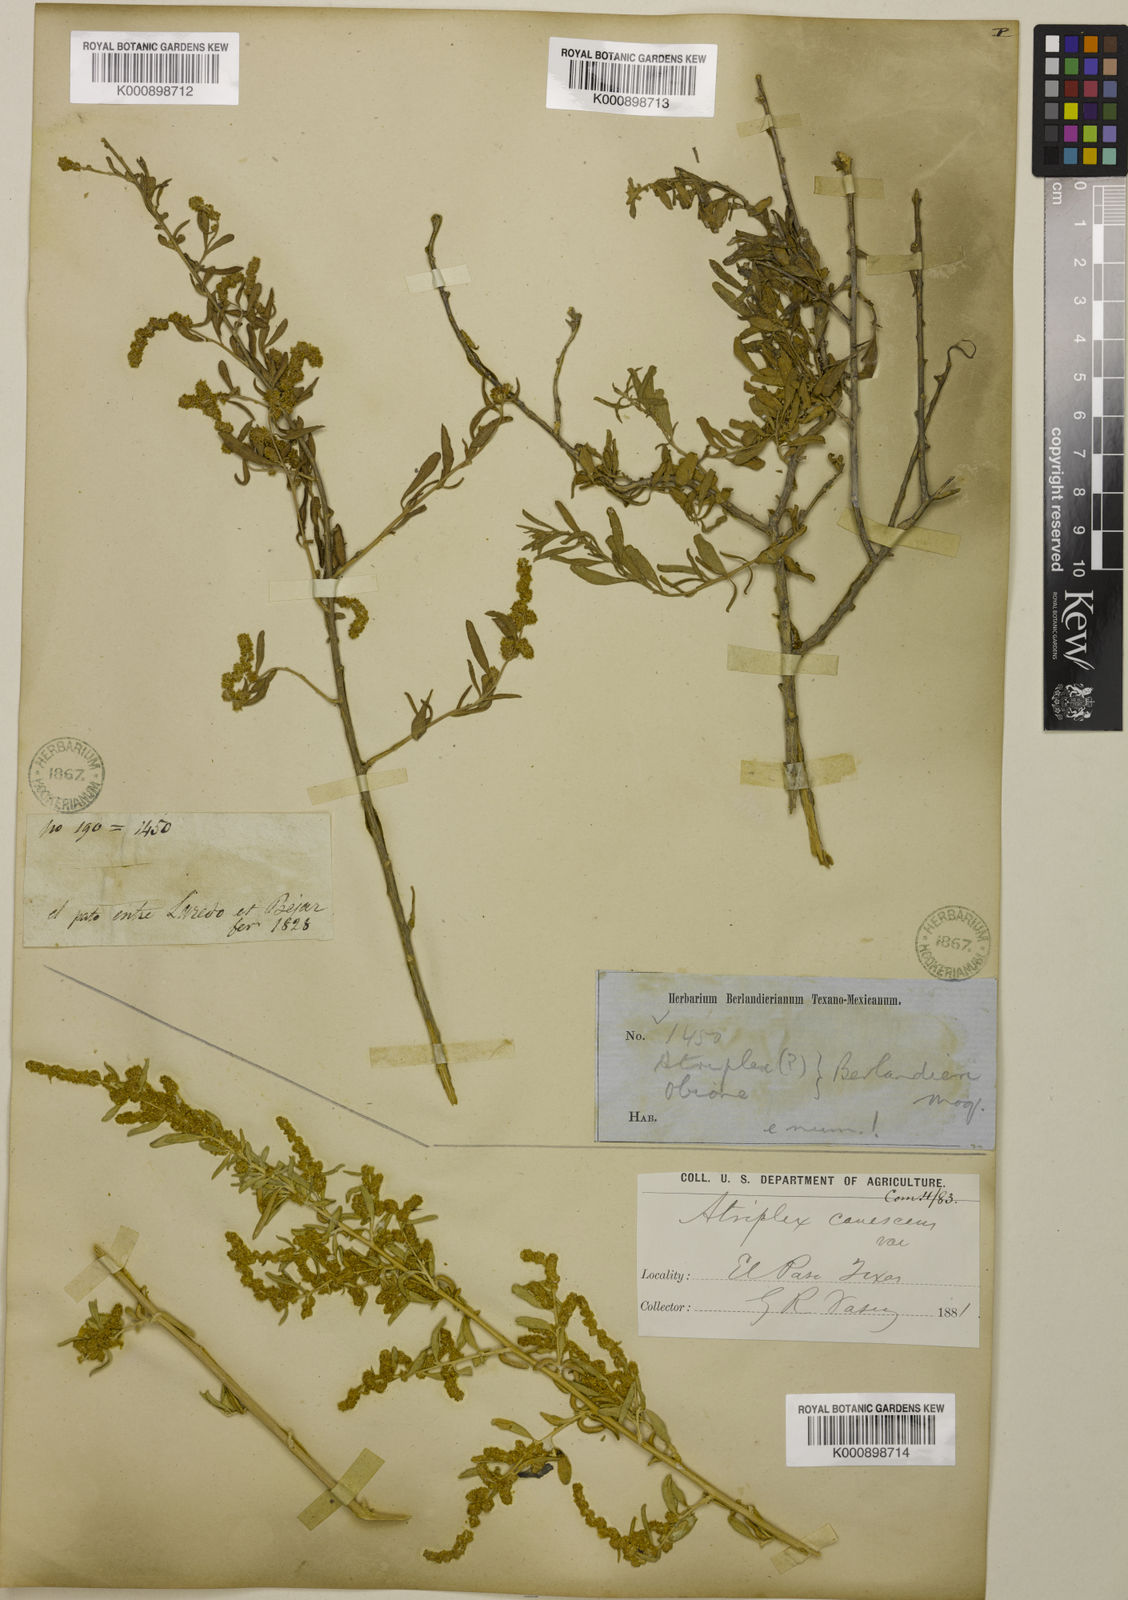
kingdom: Plantae
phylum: Tracheophyta
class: Magnoliopsida
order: Caryophyllales
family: Amaranthaceae
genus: Atriplex
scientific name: Atriplex canescens
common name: Four-wing saltbush
